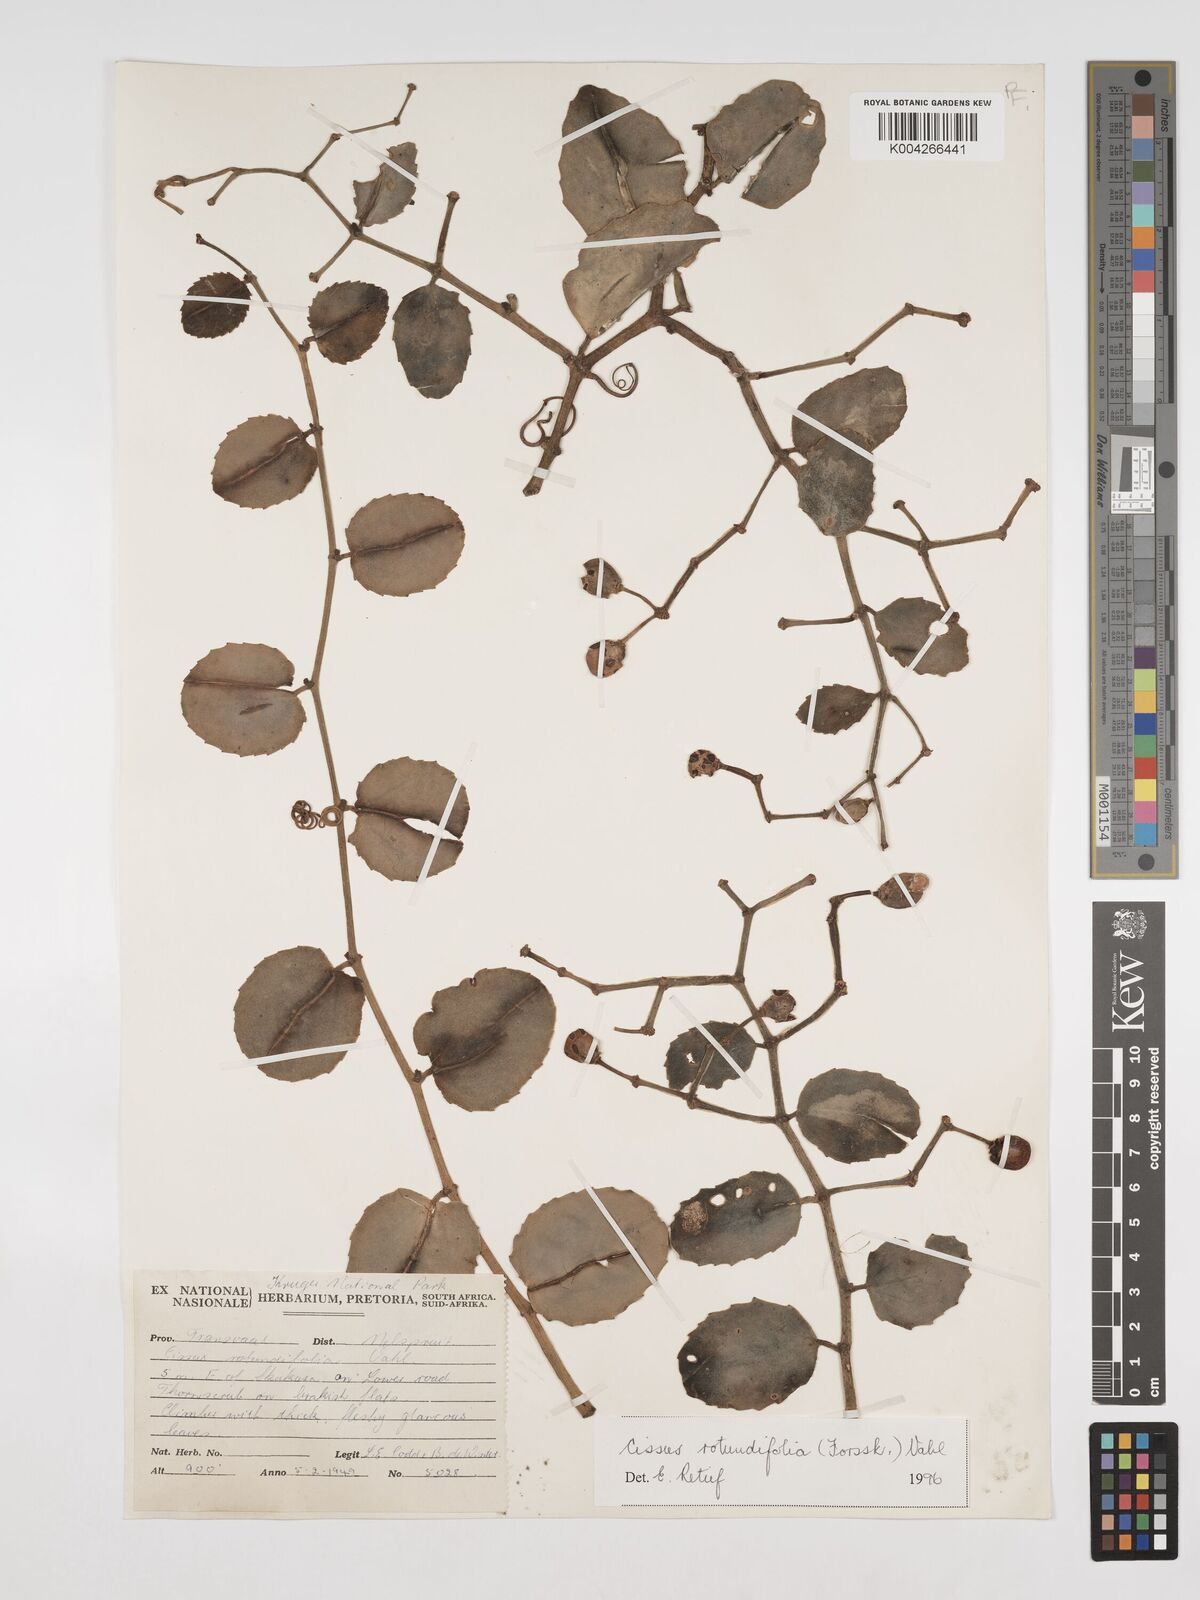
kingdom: Plantae
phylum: Tracheophyta
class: Magnoliopsida
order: Vitales
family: Vitaceae
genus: Cissus
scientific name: Cissus
